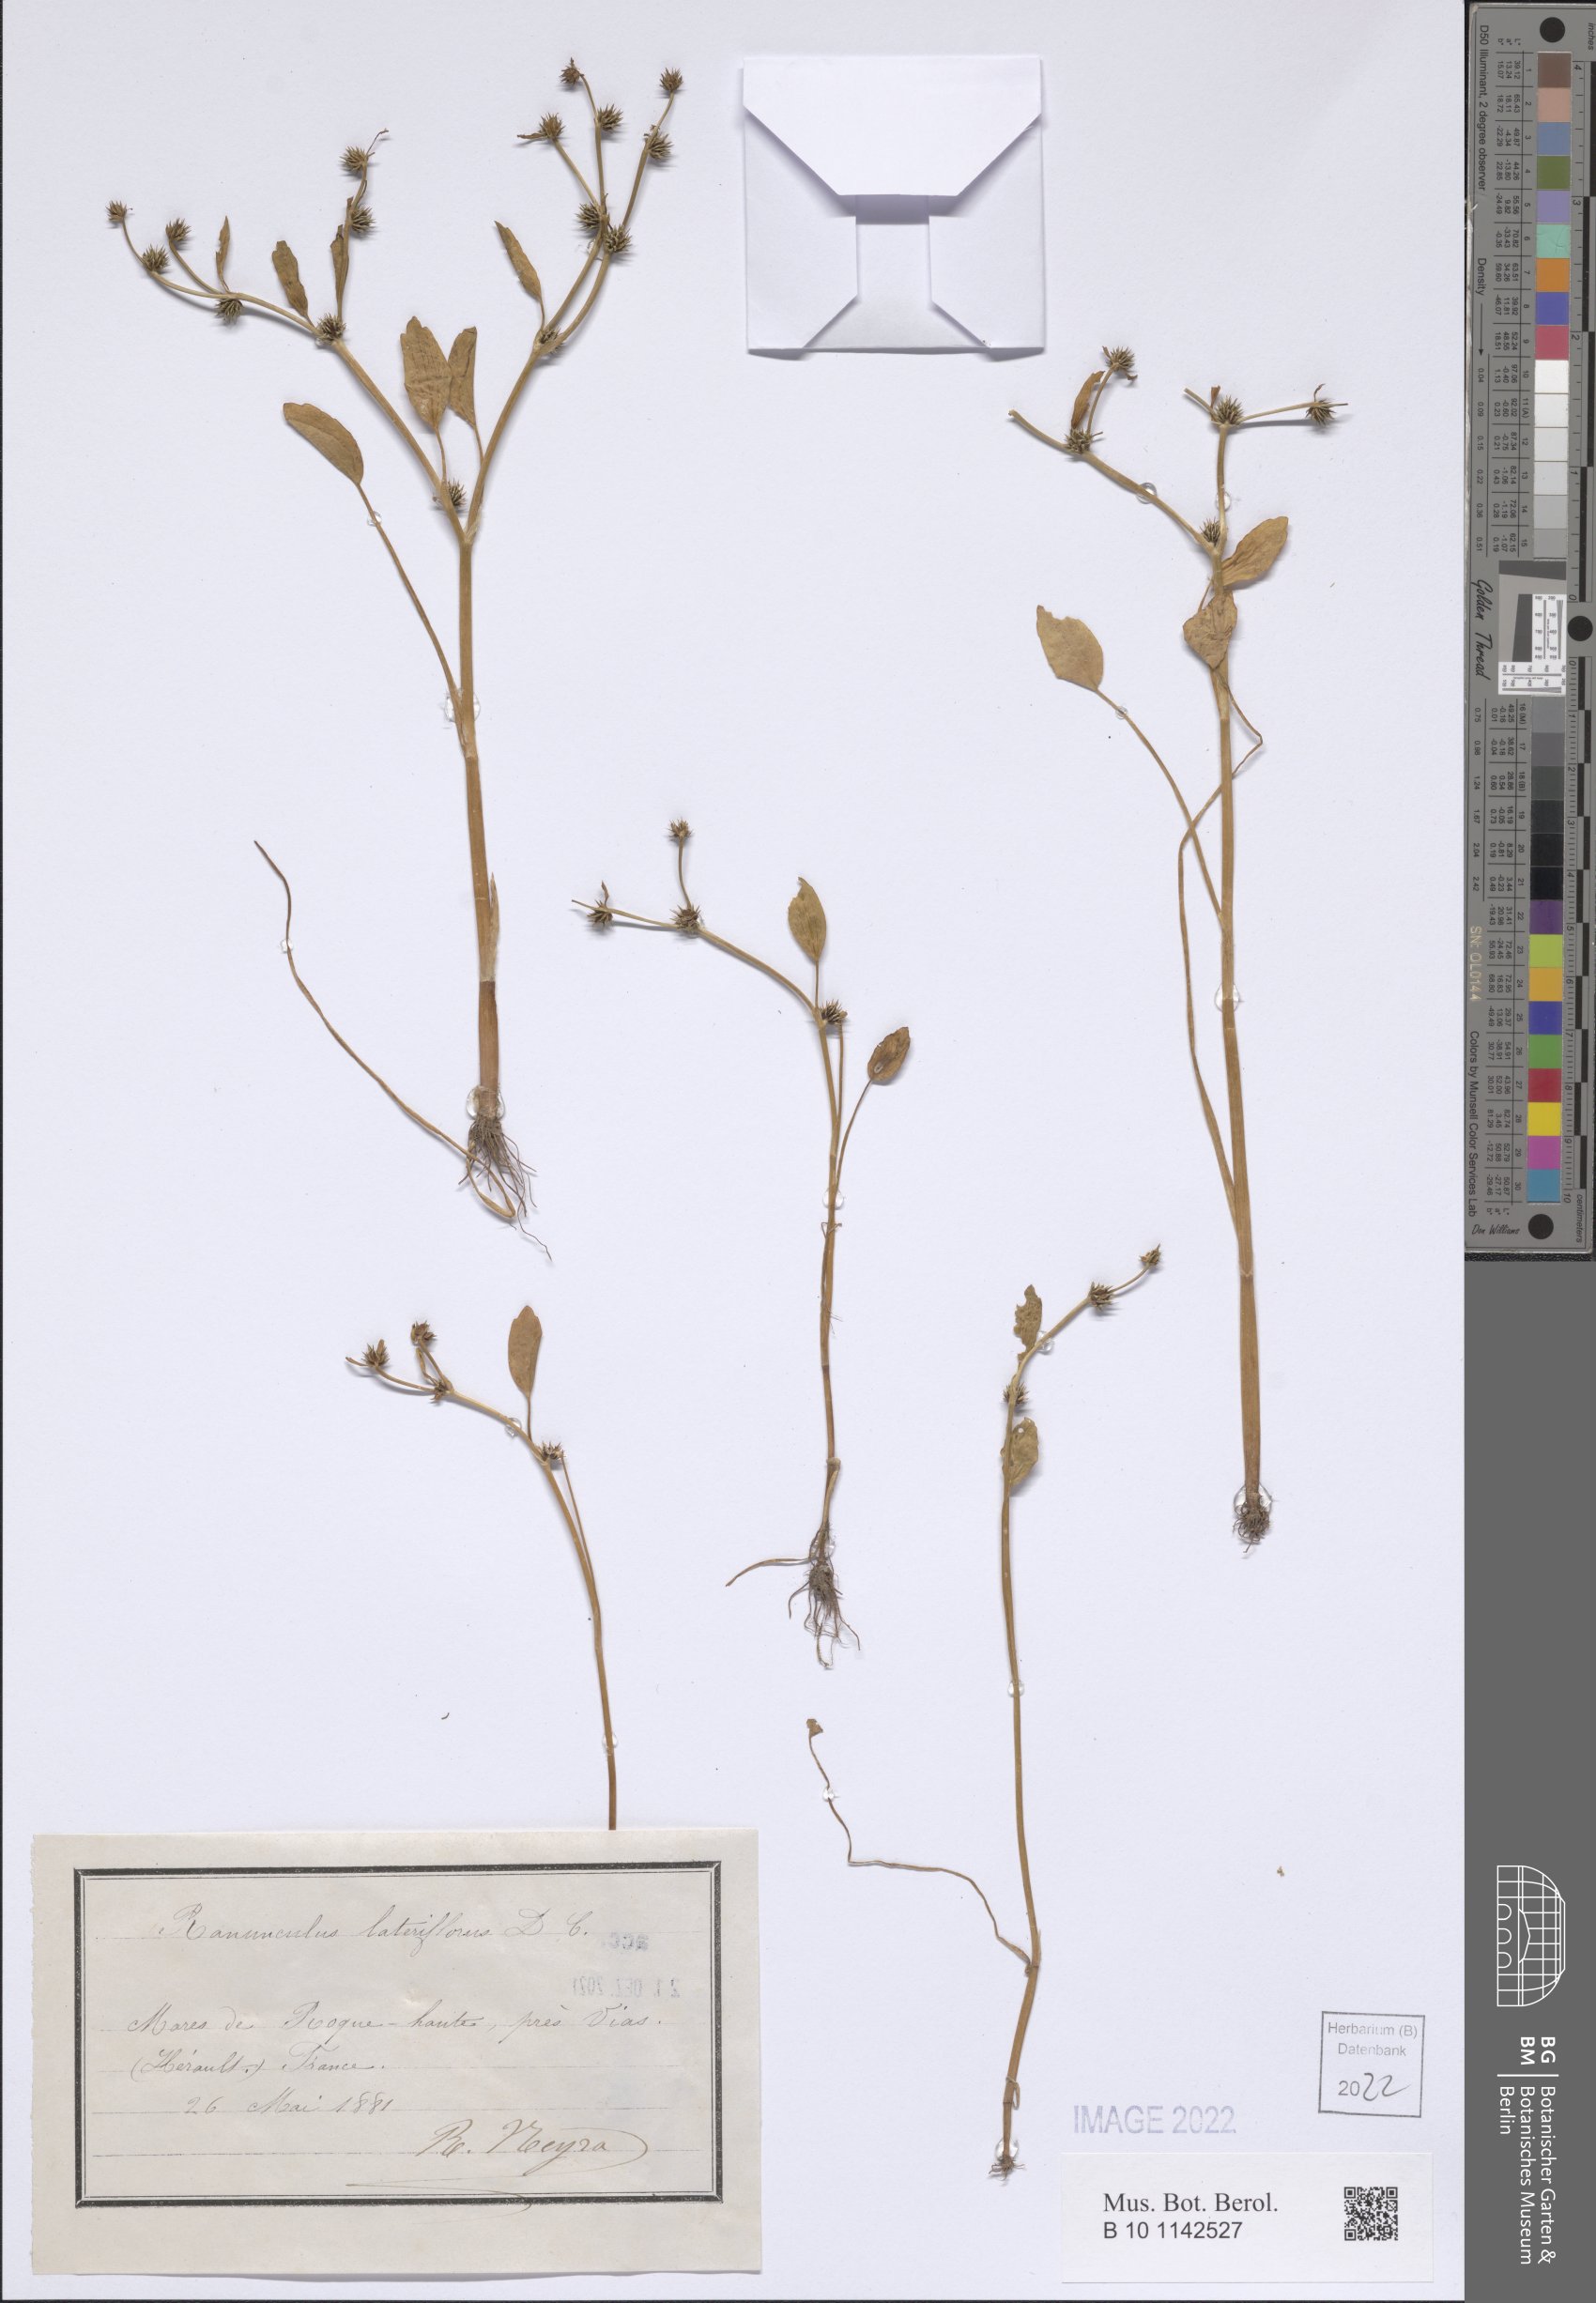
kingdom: Plantae
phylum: Tracheophyta
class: Magnoliopsida
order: Ranunculales
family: Ranunculaceae
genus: Ranunculus
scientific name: Ranunculus lateriflorus
